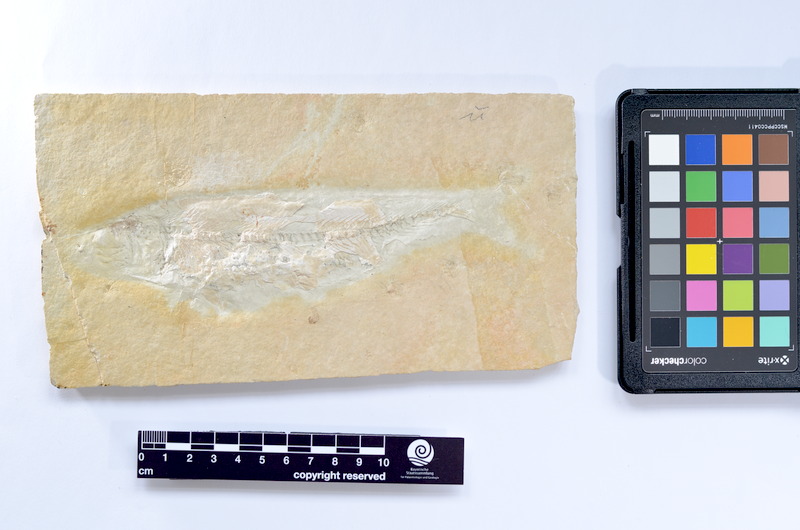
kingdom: Animalia
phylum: Chordata
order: Elopiformes
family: Anaethalionidae
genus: Anaethalion
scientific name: Anaethalion knorri
